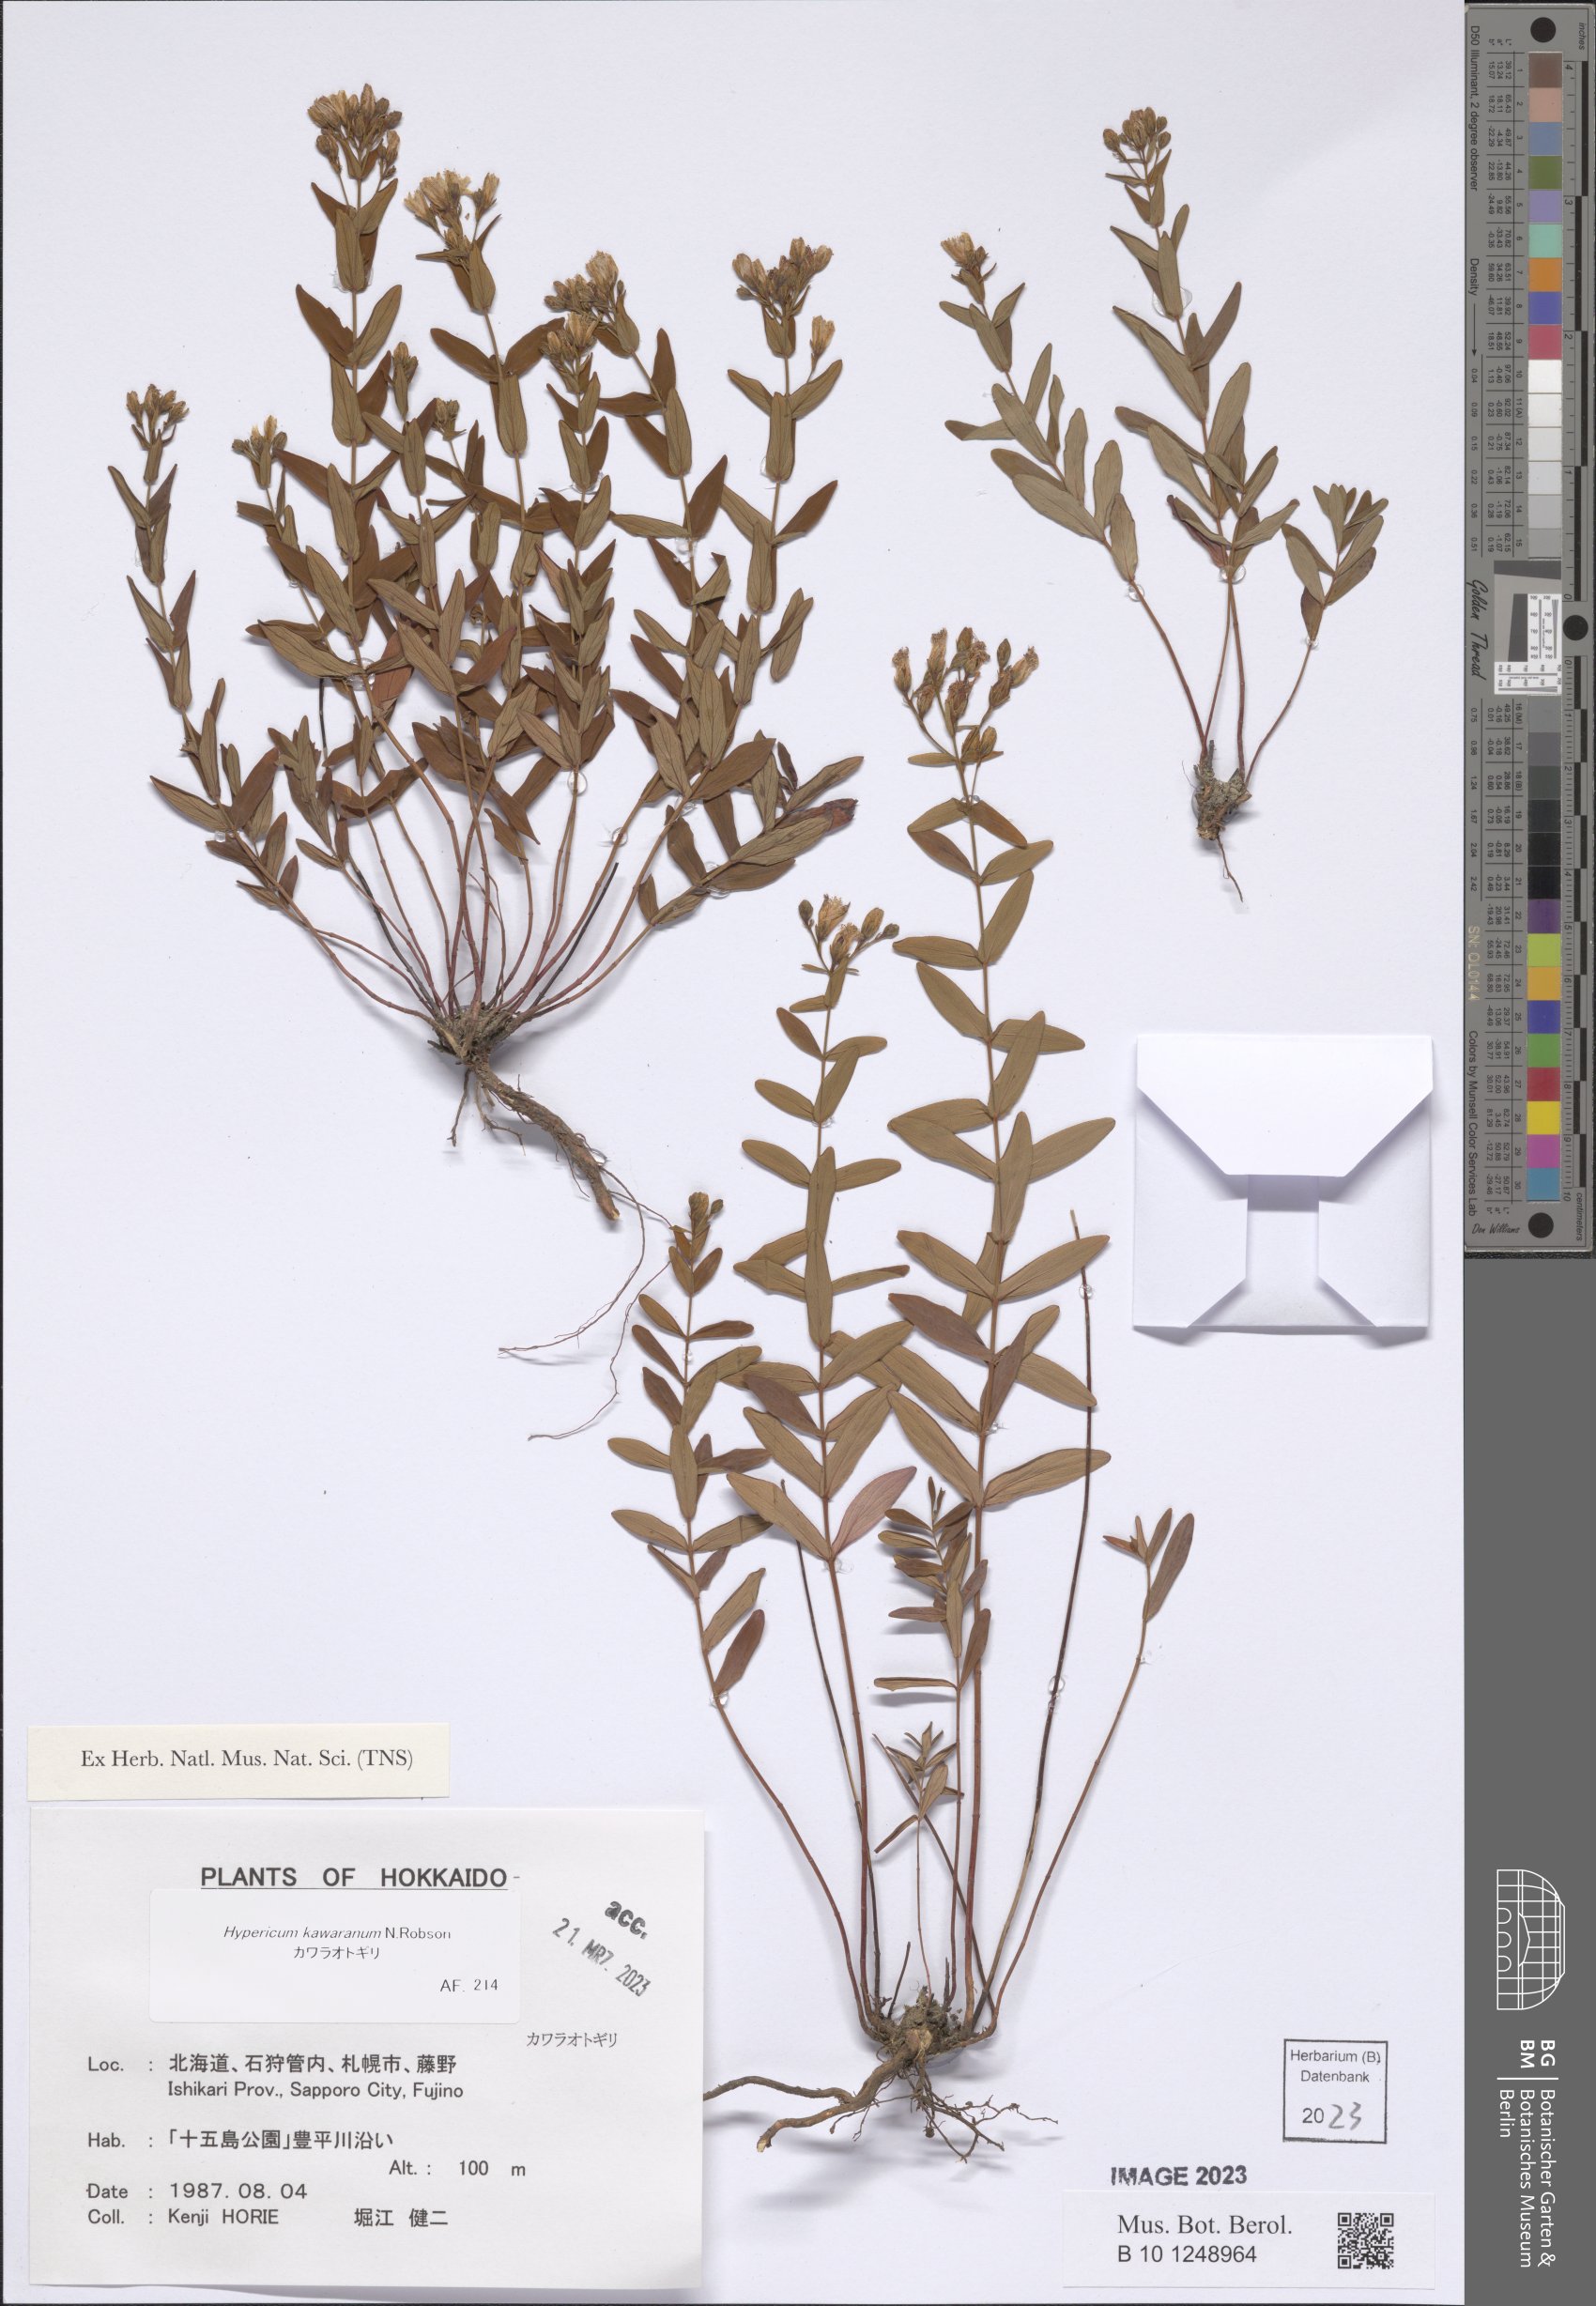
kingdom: Plantae
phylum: Tracheophyta
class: Magnoliopsida
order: Malpighiales
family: Hypericaceae
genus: Hypericum
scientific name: Hypericum kawaranum
